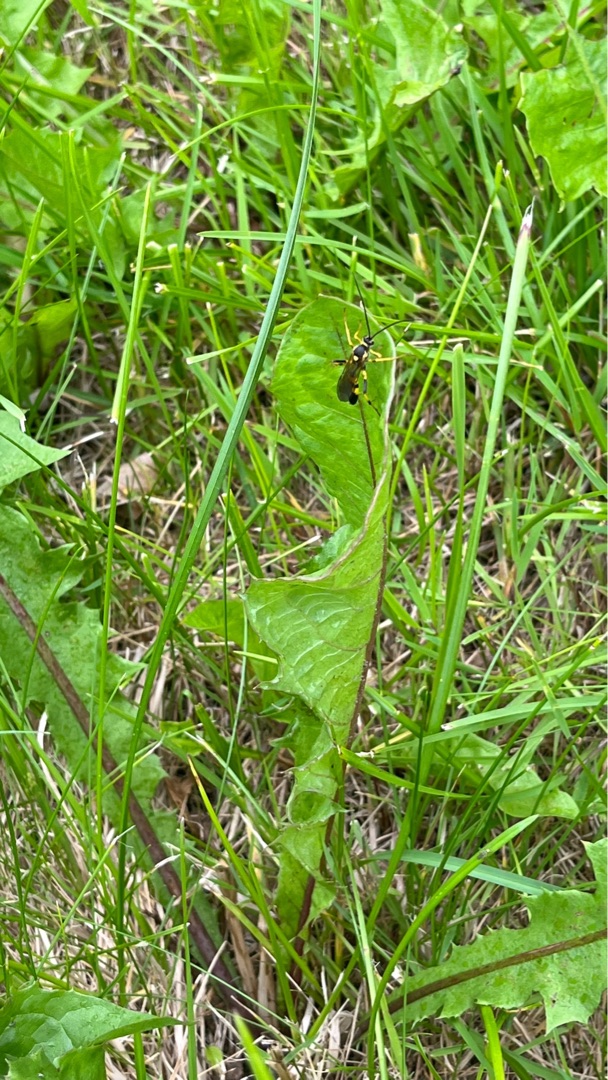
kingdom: Animalia
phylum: Arthropoda
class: Insecta
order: Hymenoptera
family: Ichneumonidae
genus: Amblyteles
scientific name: Amblyteles armatorius
